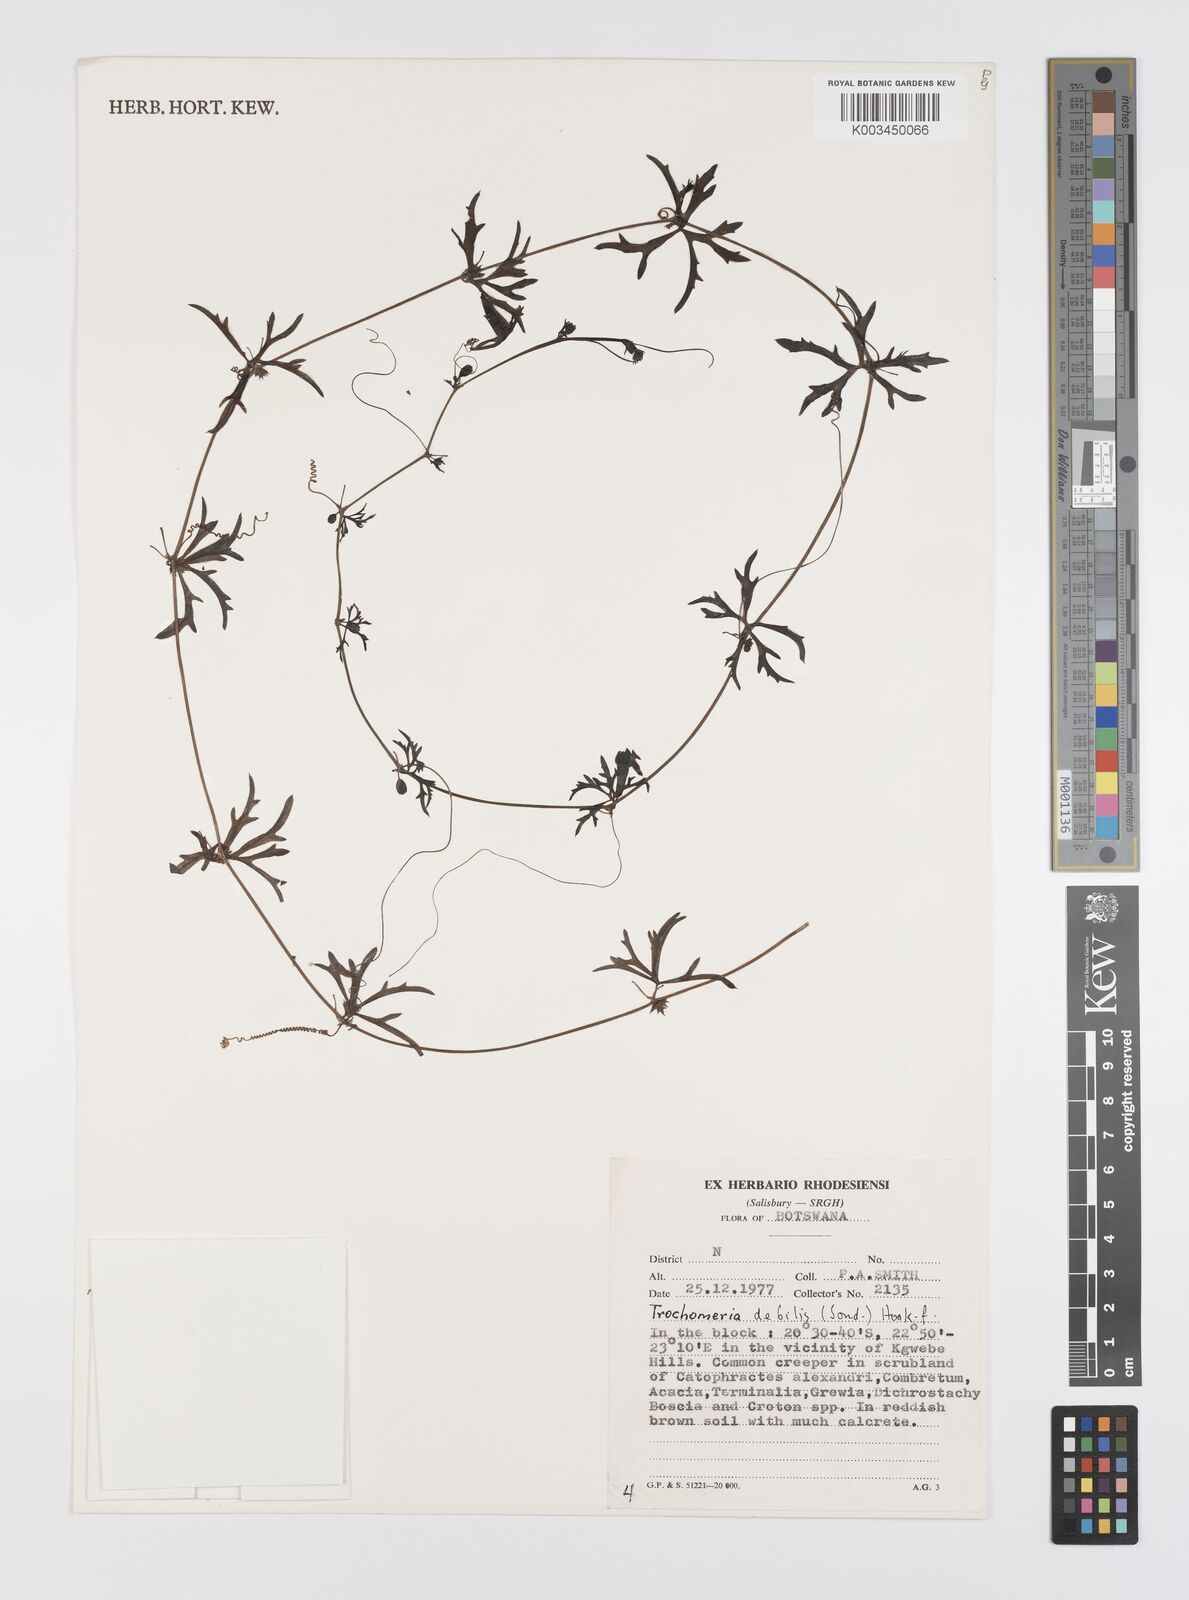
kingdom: Plantae
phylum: Tracheophyta
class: Magnoliopsida
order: Cucurbitales
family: Cucurbitaceae
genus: Trochomeria
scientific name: Trochomeria debilis
